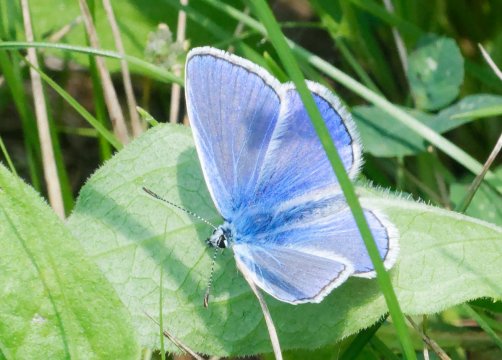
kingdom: Animalia
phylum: Arthropoda
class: Insecta
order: Lepidoptera
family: Lycaenidae
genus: Polyommatus
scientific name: Polyommatus icarus
